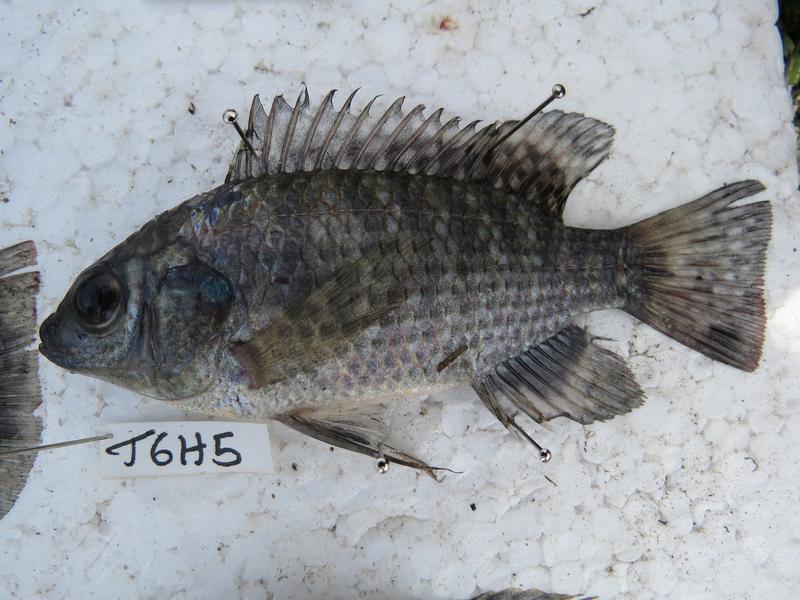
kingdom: Animalia
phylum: Chordata
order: Perciformes
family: Cichlidae
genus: Oreochromis
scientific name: Oreochromis leucostictus
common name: Blue spotted tilapia
